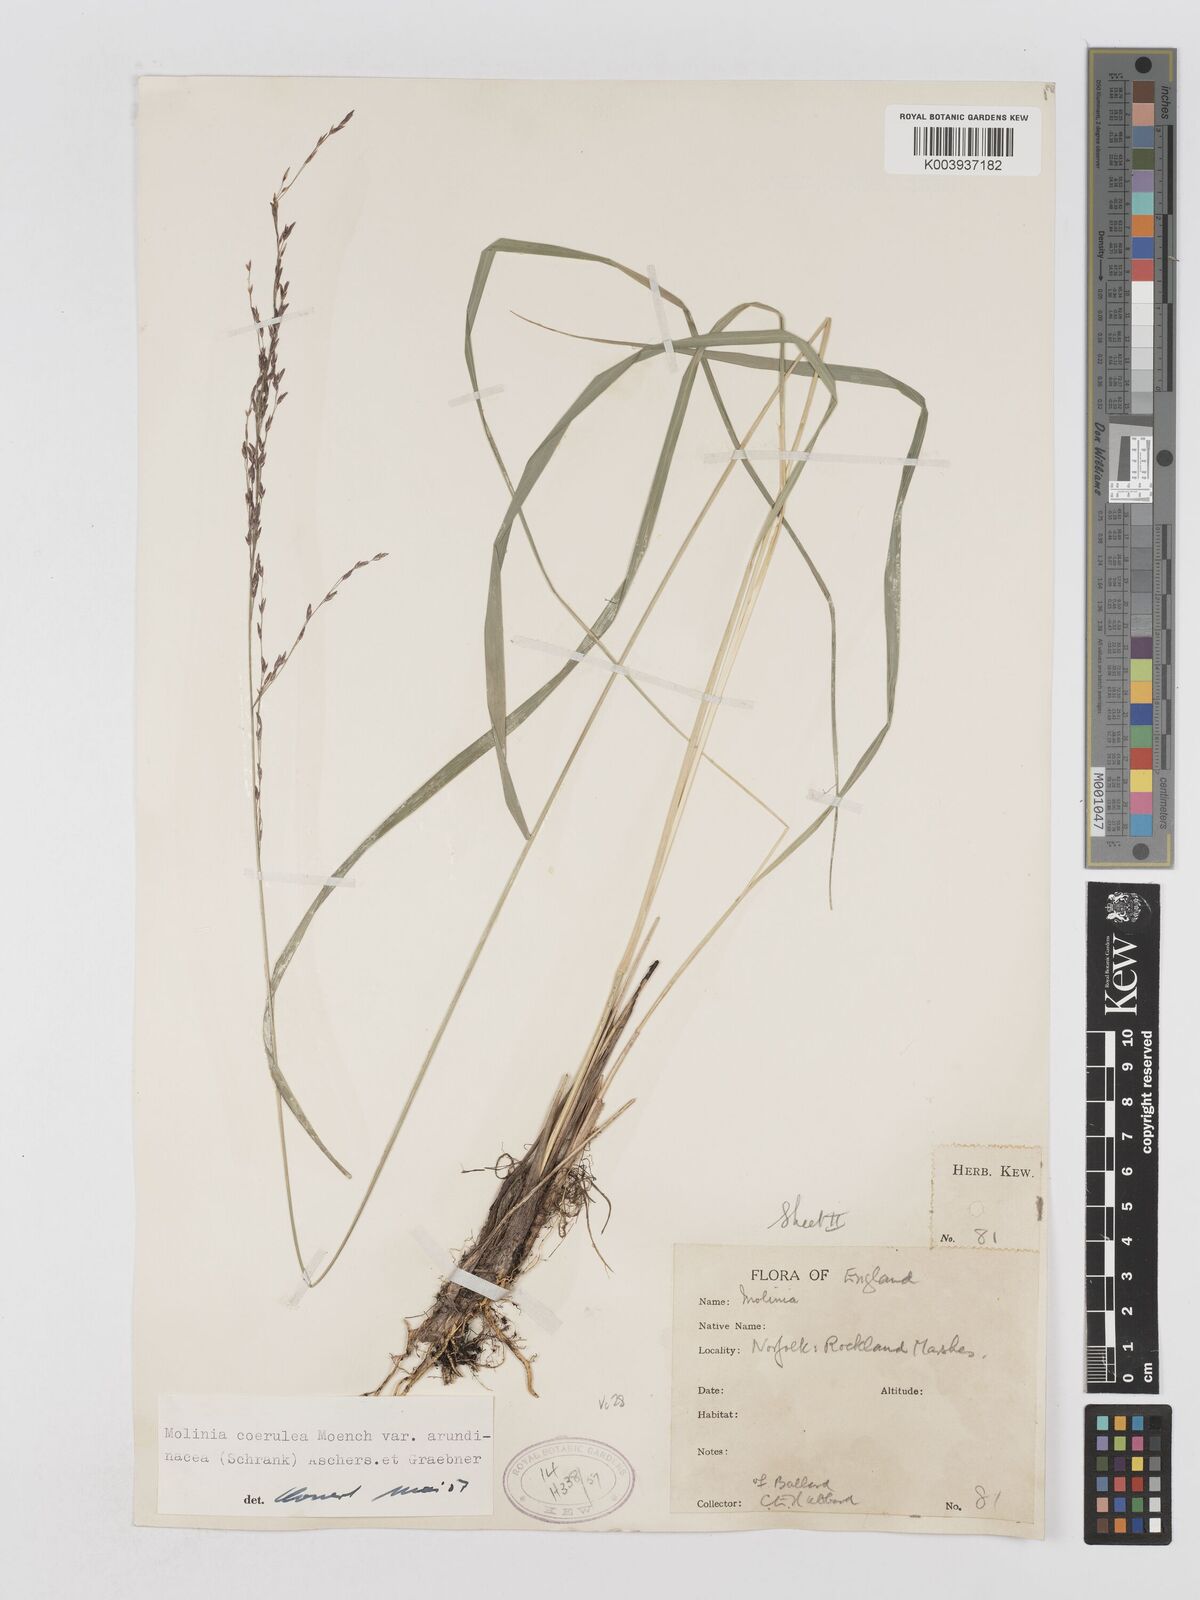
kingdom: Plantae
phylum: Tracheophyta
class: Liliopsida
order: Poales
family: Poaceae
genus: Molinia
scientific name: Molinia caerulea
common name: Purple moor-grass
